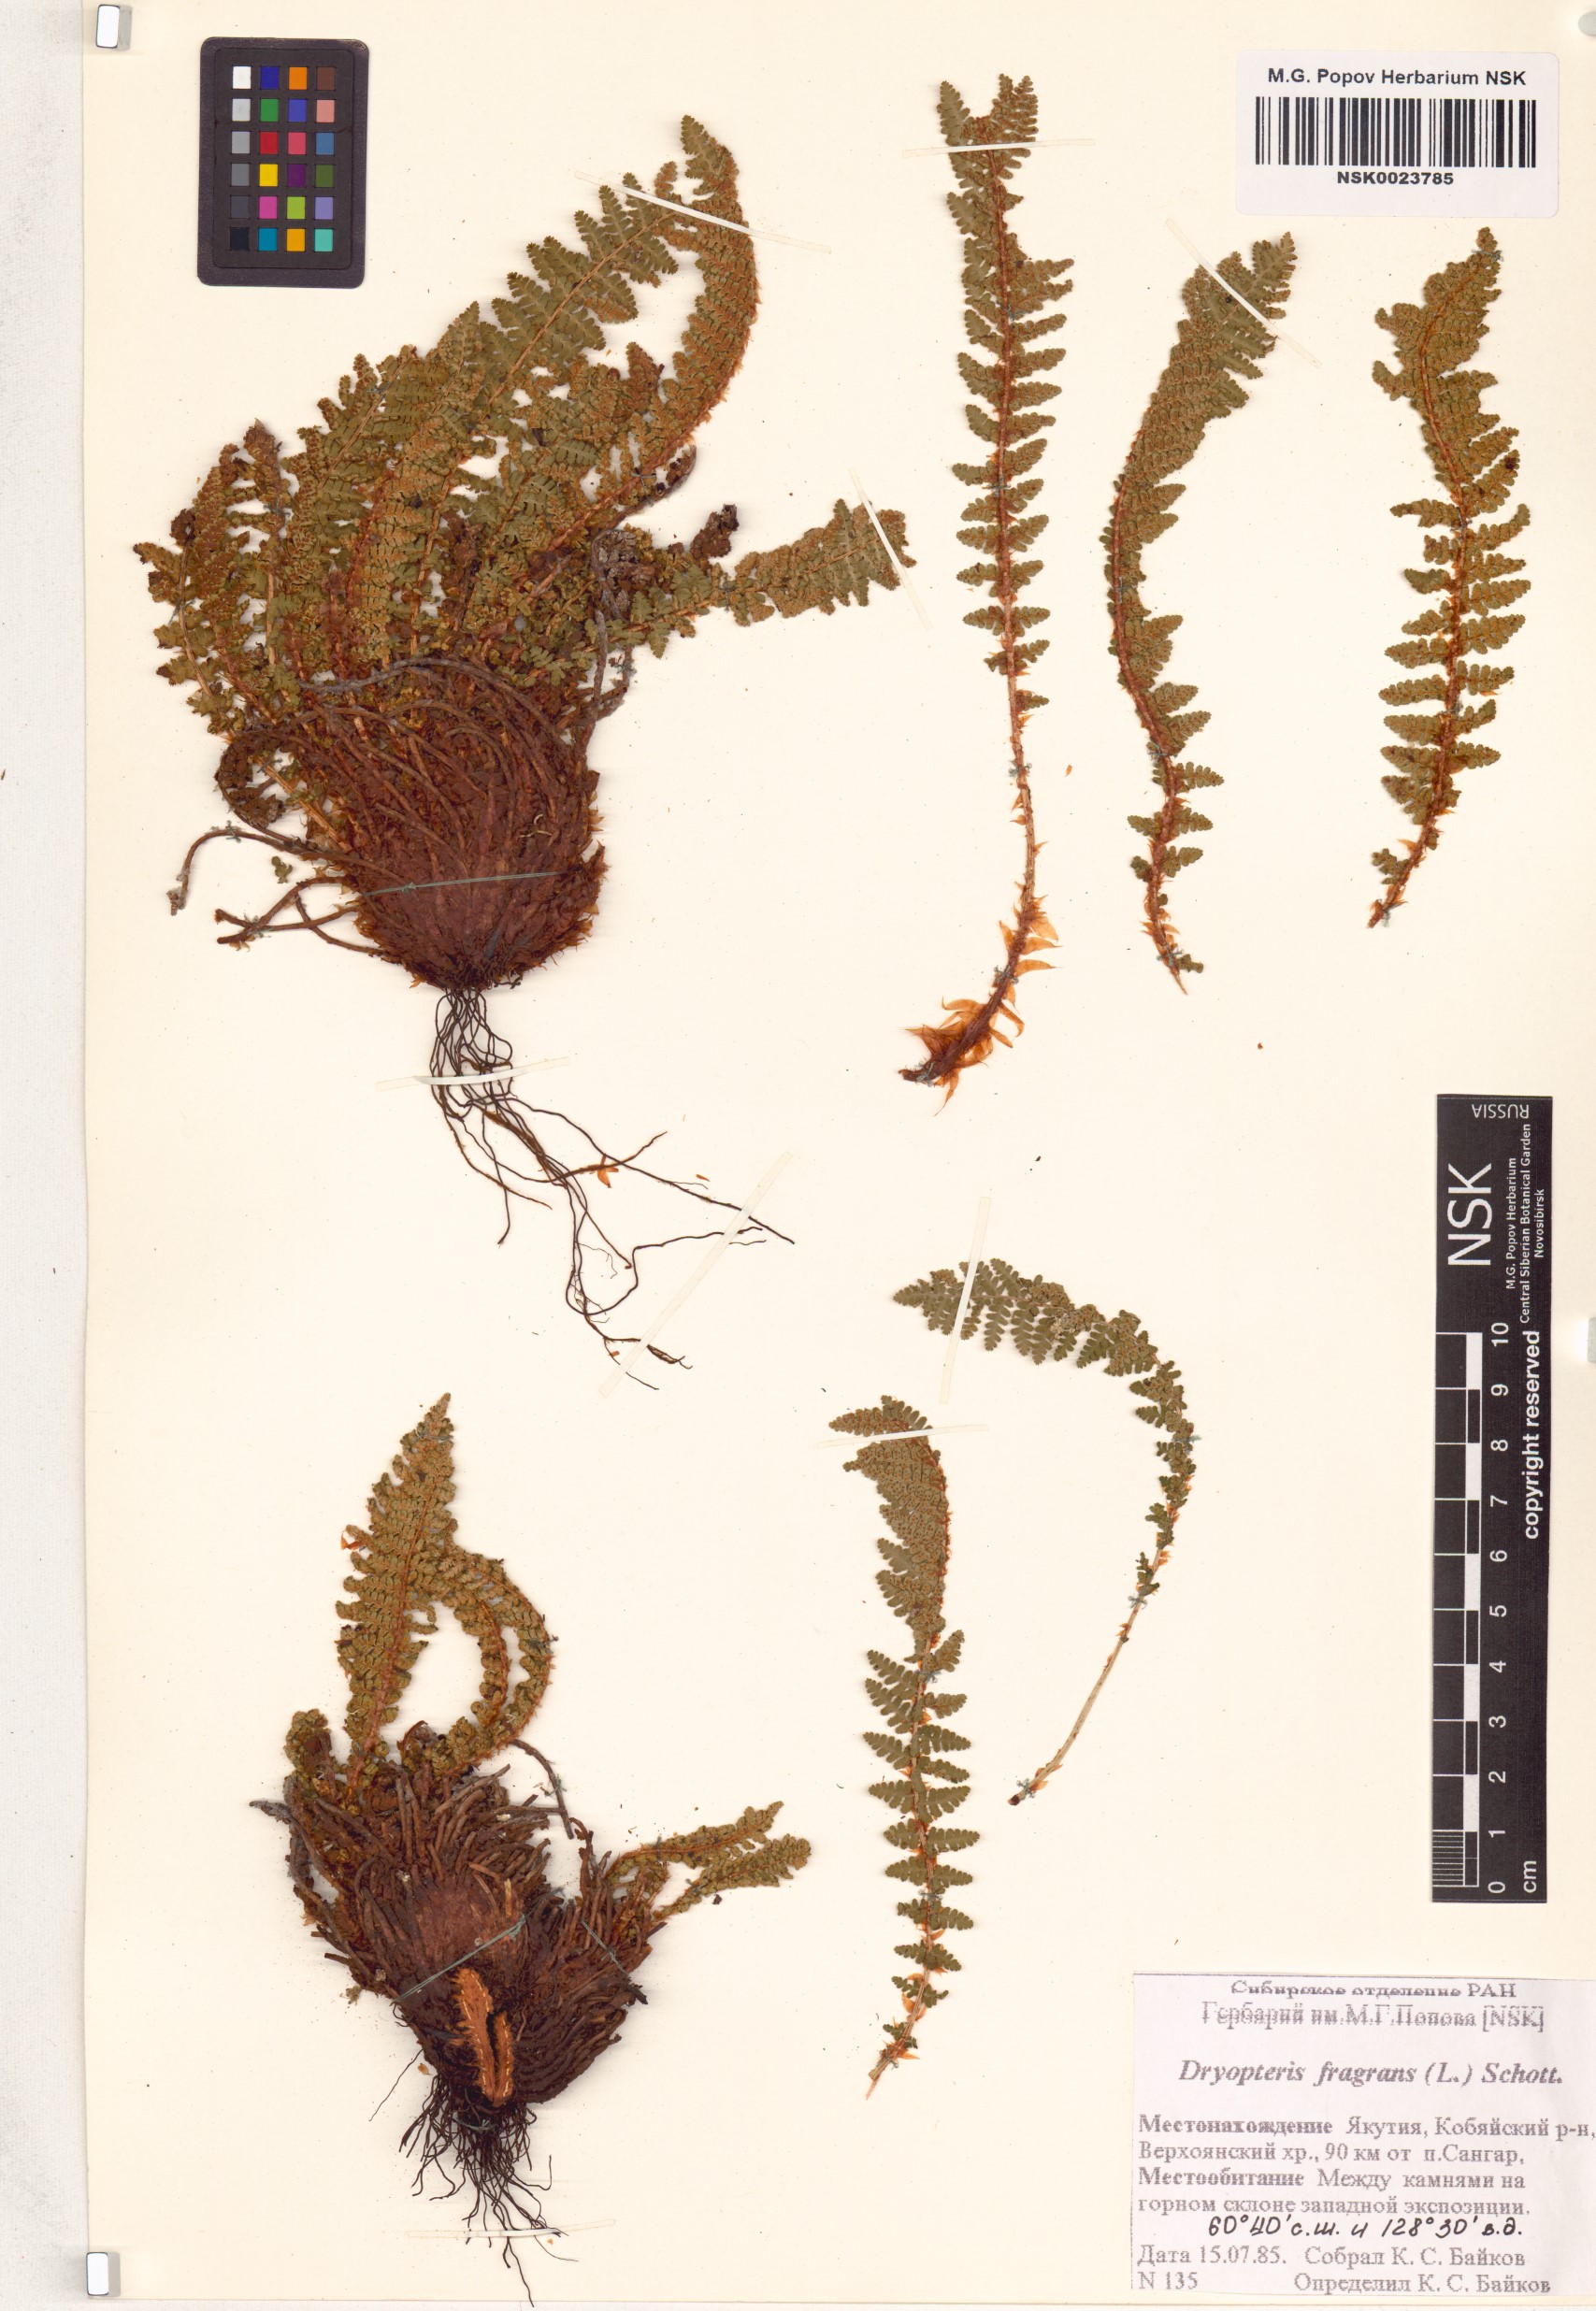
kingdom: Plantae
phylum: Tracheophyta
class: Polypodiopsida
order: Polypodiales
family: Dryopteridaceae
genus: Dryopteris
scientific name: Dryopteris fragrans
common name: Fragrant wood fern
